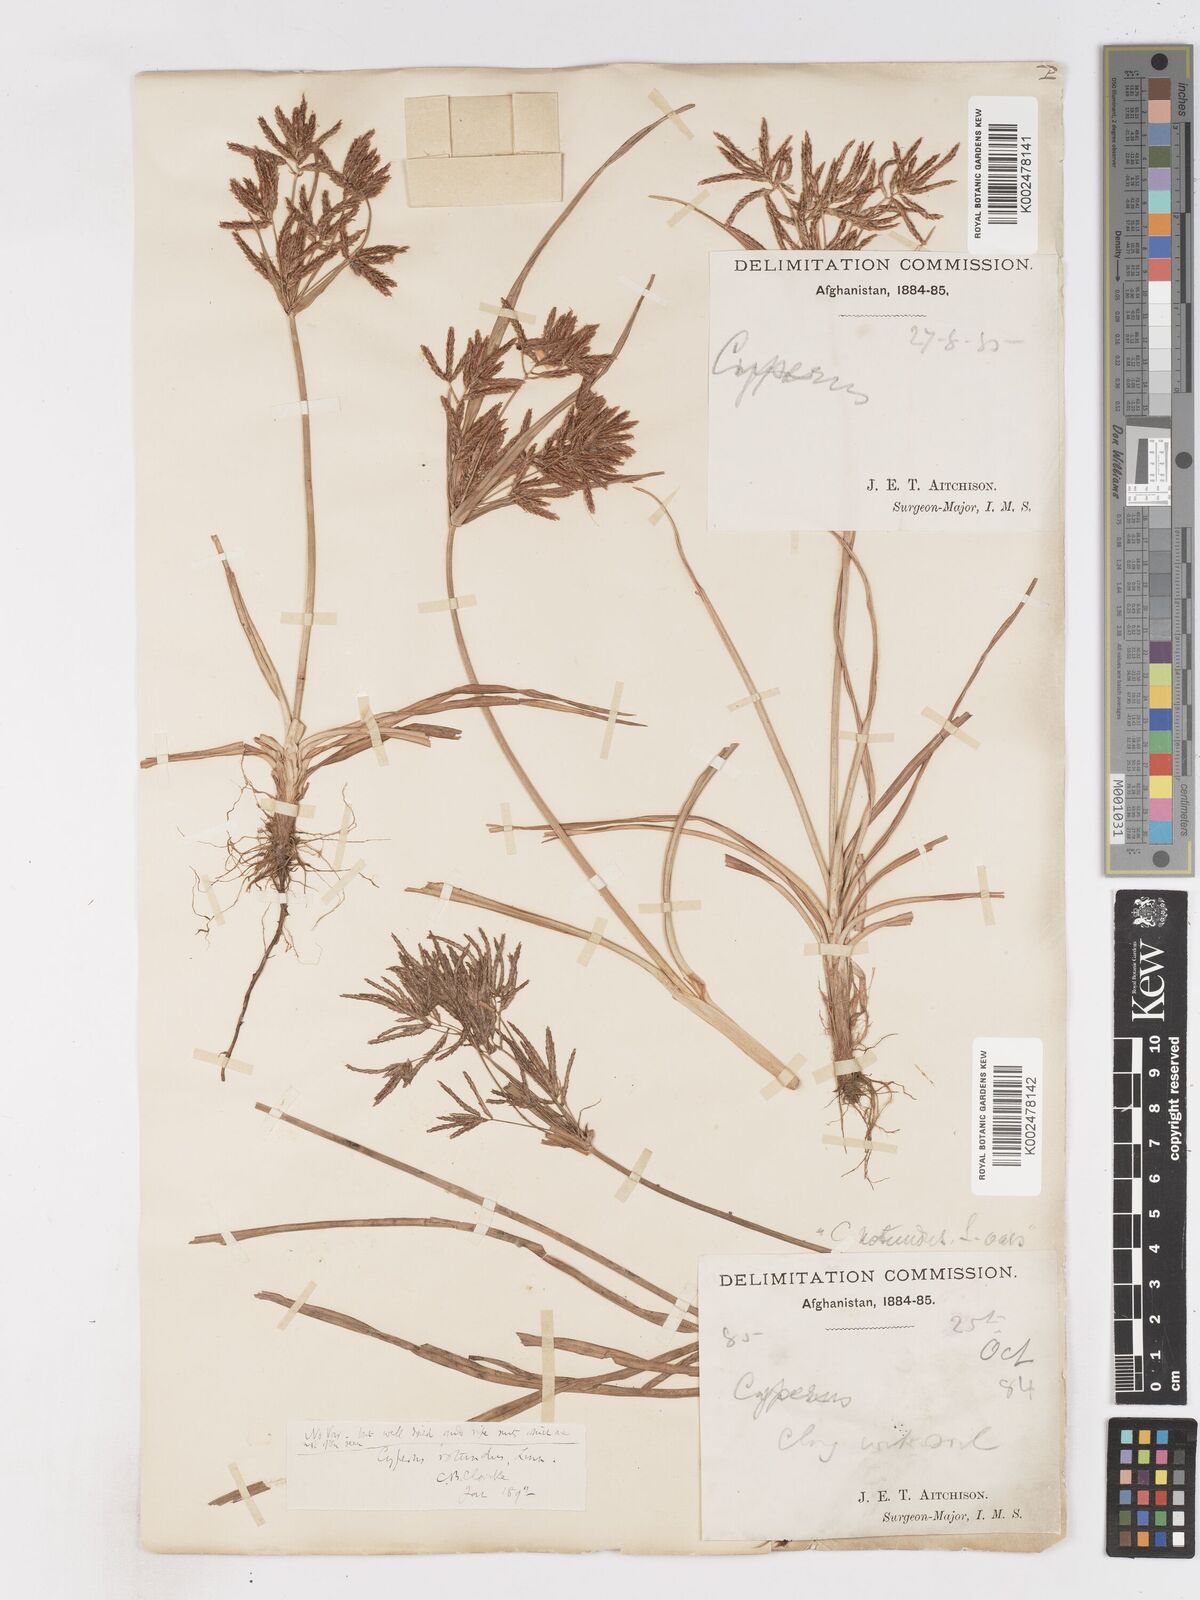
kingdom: Plantae
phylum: Tracheophyta
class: Liliopsida
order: Poales
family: Cyperaceae
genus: Cyperus
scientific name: Cyperus rotundus
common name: Nutgrass
